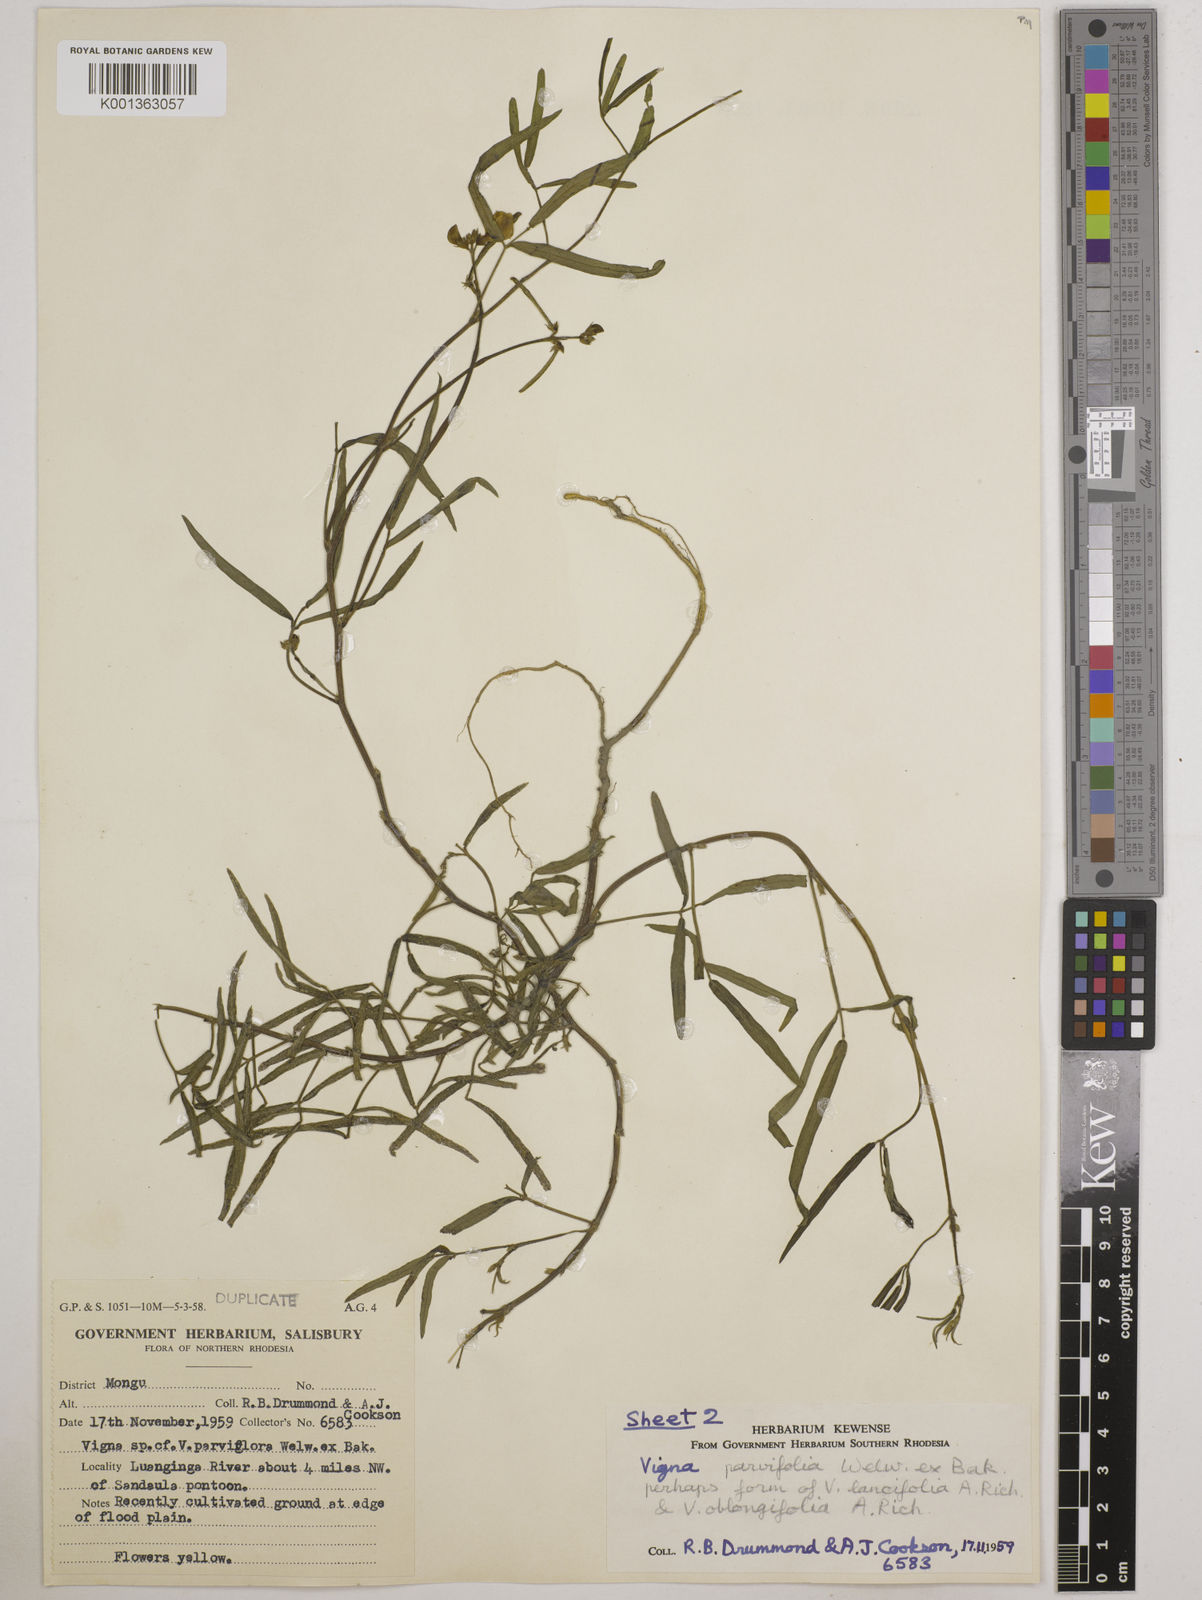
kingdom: Plantae
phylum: Tracheophyta
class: Magnoliopsida
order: Fabales
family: Fabaceae
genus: Vigna
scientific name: Vigna
